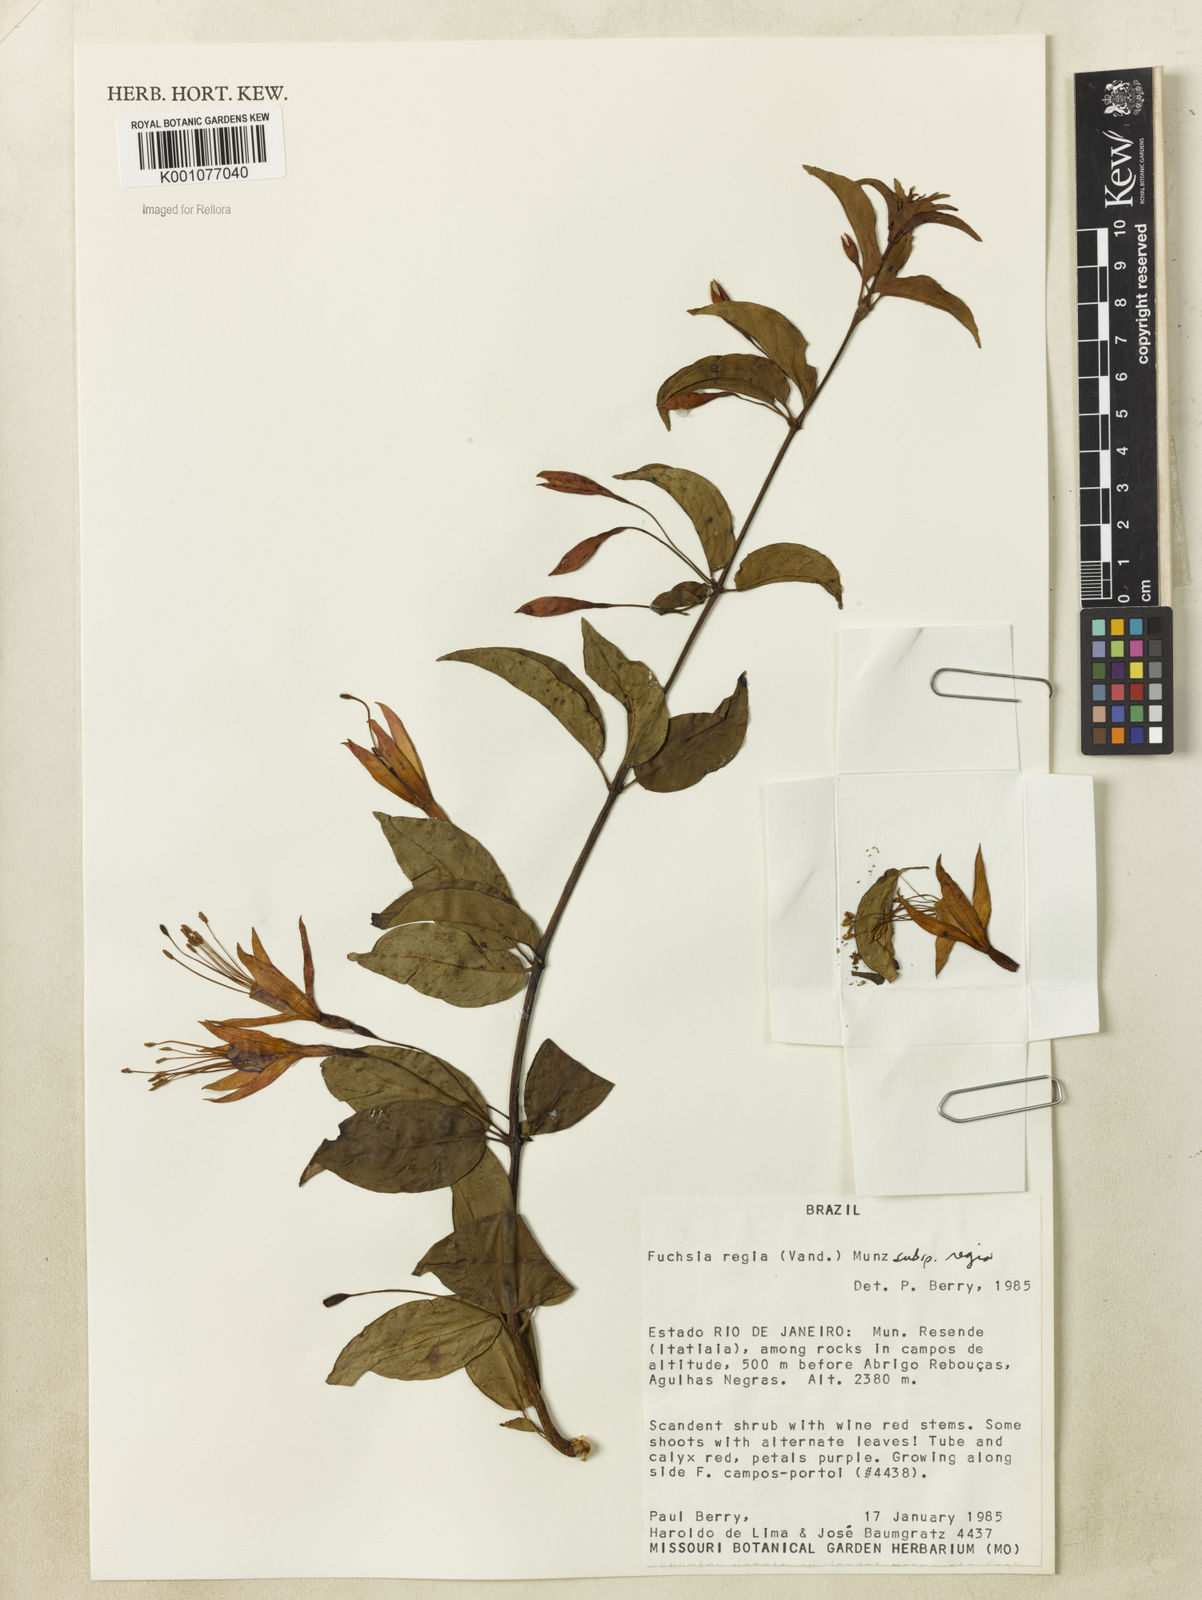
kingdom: Plantae
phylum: Tracheophyta
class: Magnoliopsida
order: Myrtales
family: Onagraceae
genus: Fuchsia
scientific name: Fuchsia regia
